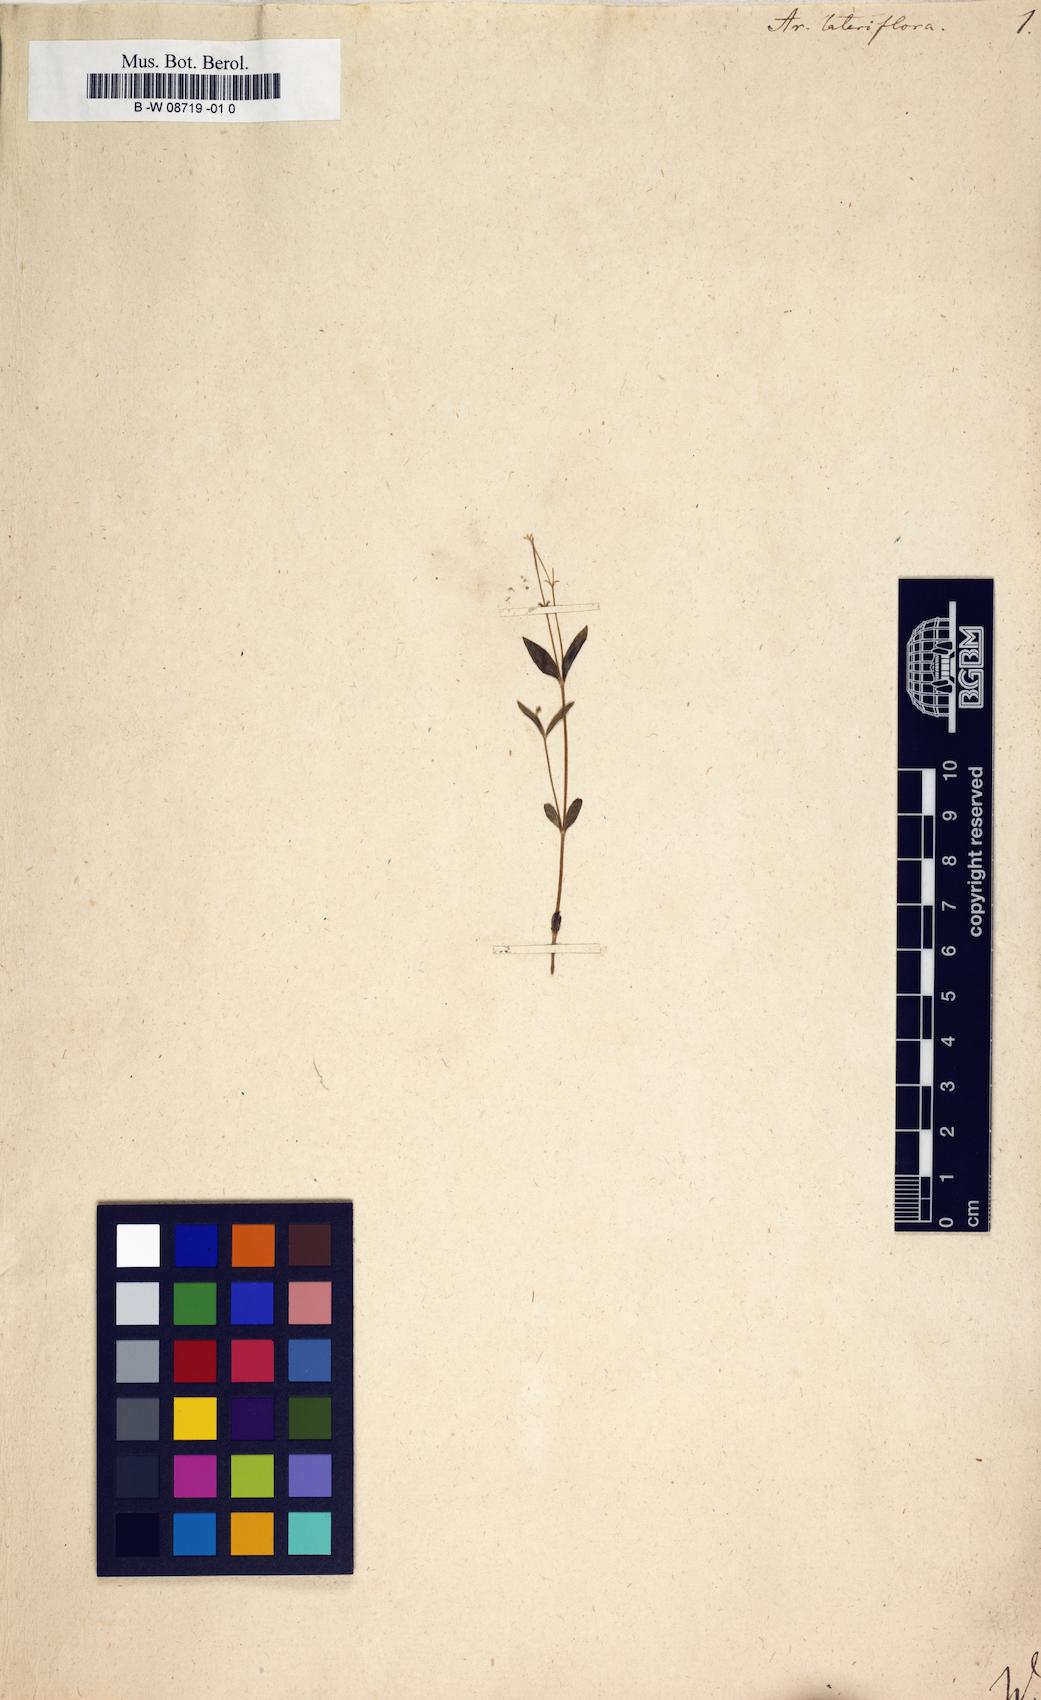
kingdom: Plantae
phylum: Tracheophyta
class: Magnoliopsida
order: Caryophyllales
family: Caryophyllaceae
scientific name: Caryophyllaceae
